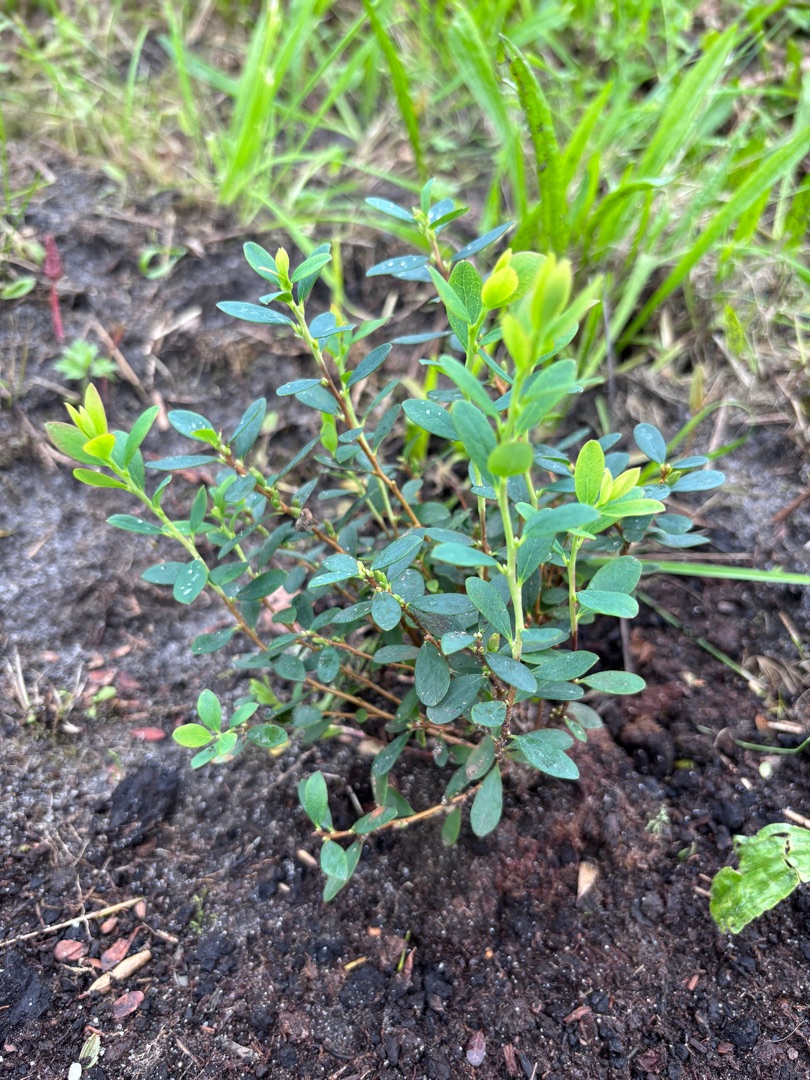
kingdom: Plantae
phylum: Tracheophyta
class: Magnoliopsida
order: Ericales
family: Ericaceae
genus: Vaccinium
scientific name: Vaccinium uliginosum
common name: Mose-bølle
